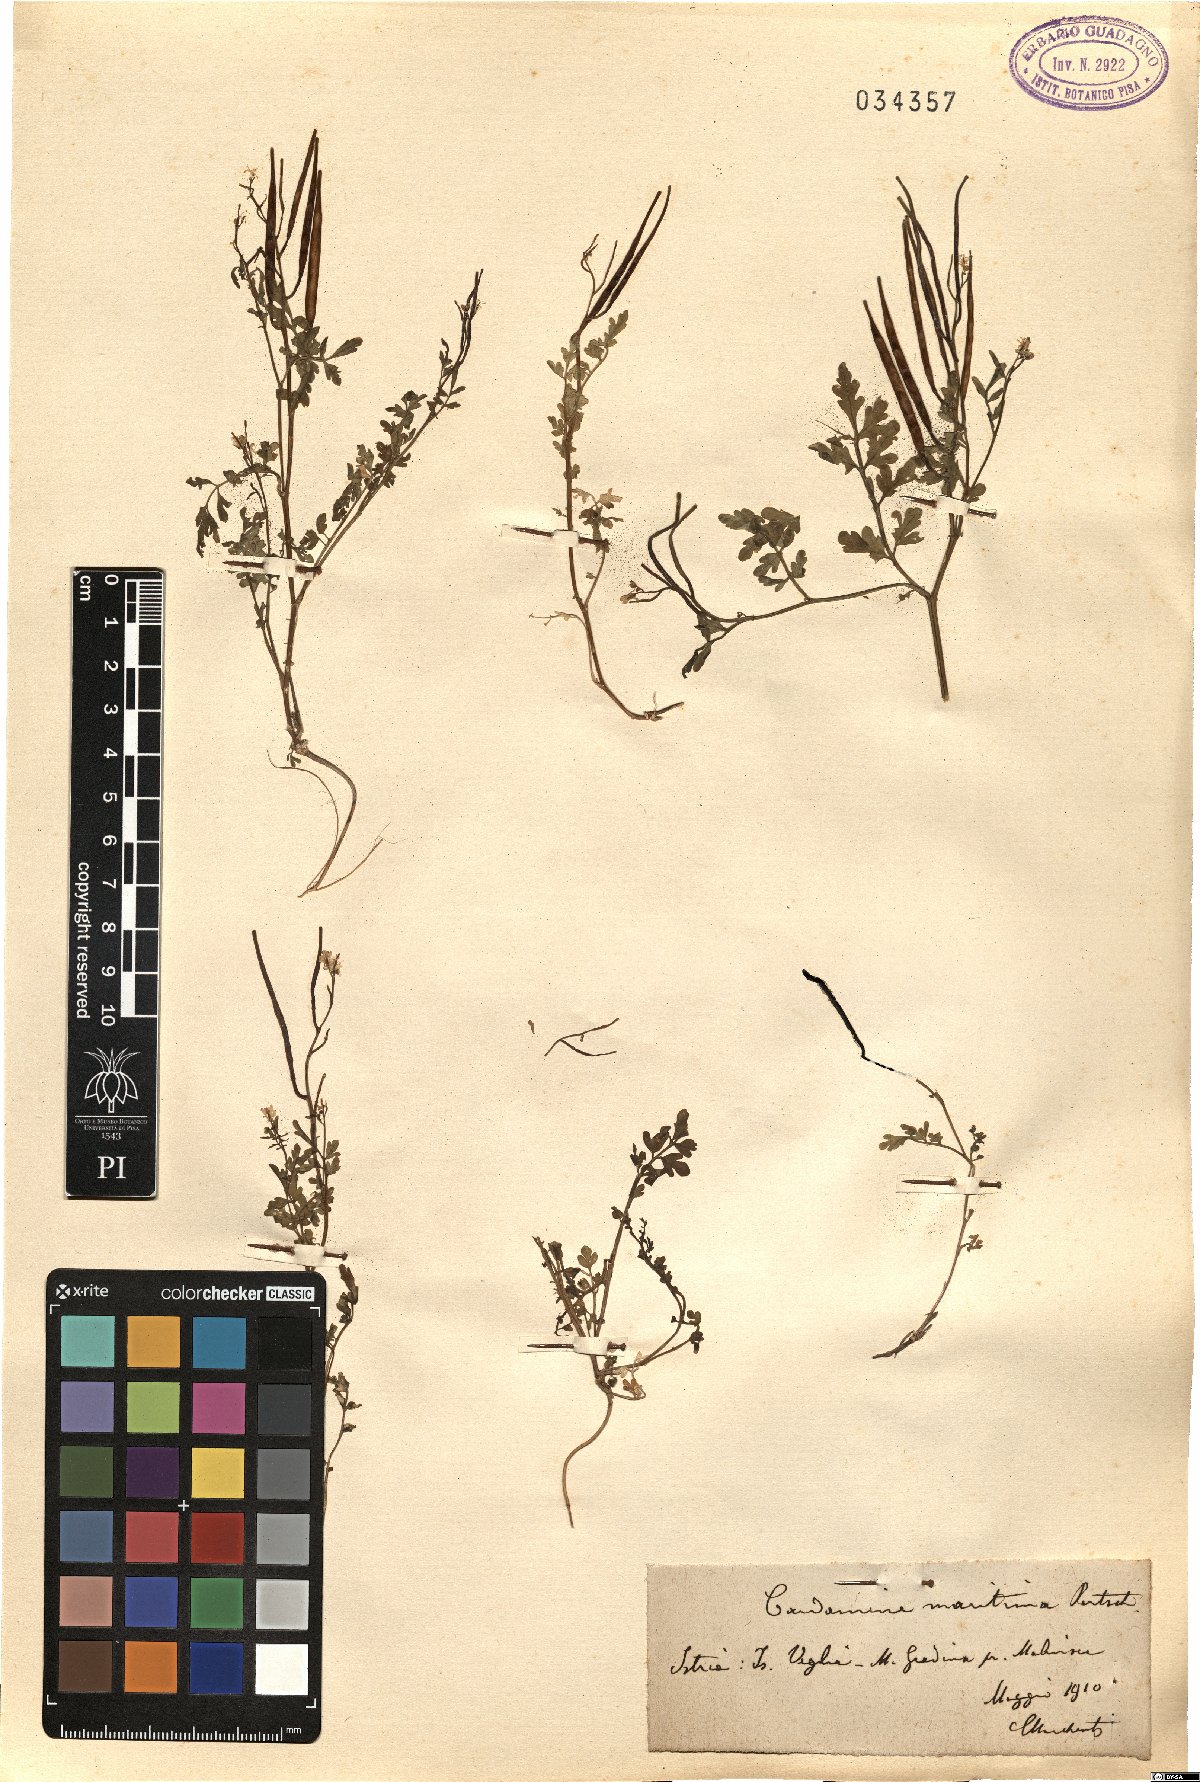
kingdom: Plantae
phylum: Tracheophyta
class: Magnoliopsida
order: Brassicales
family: Brassicaceae
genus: Cardamine
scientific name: Cardamine maritima
